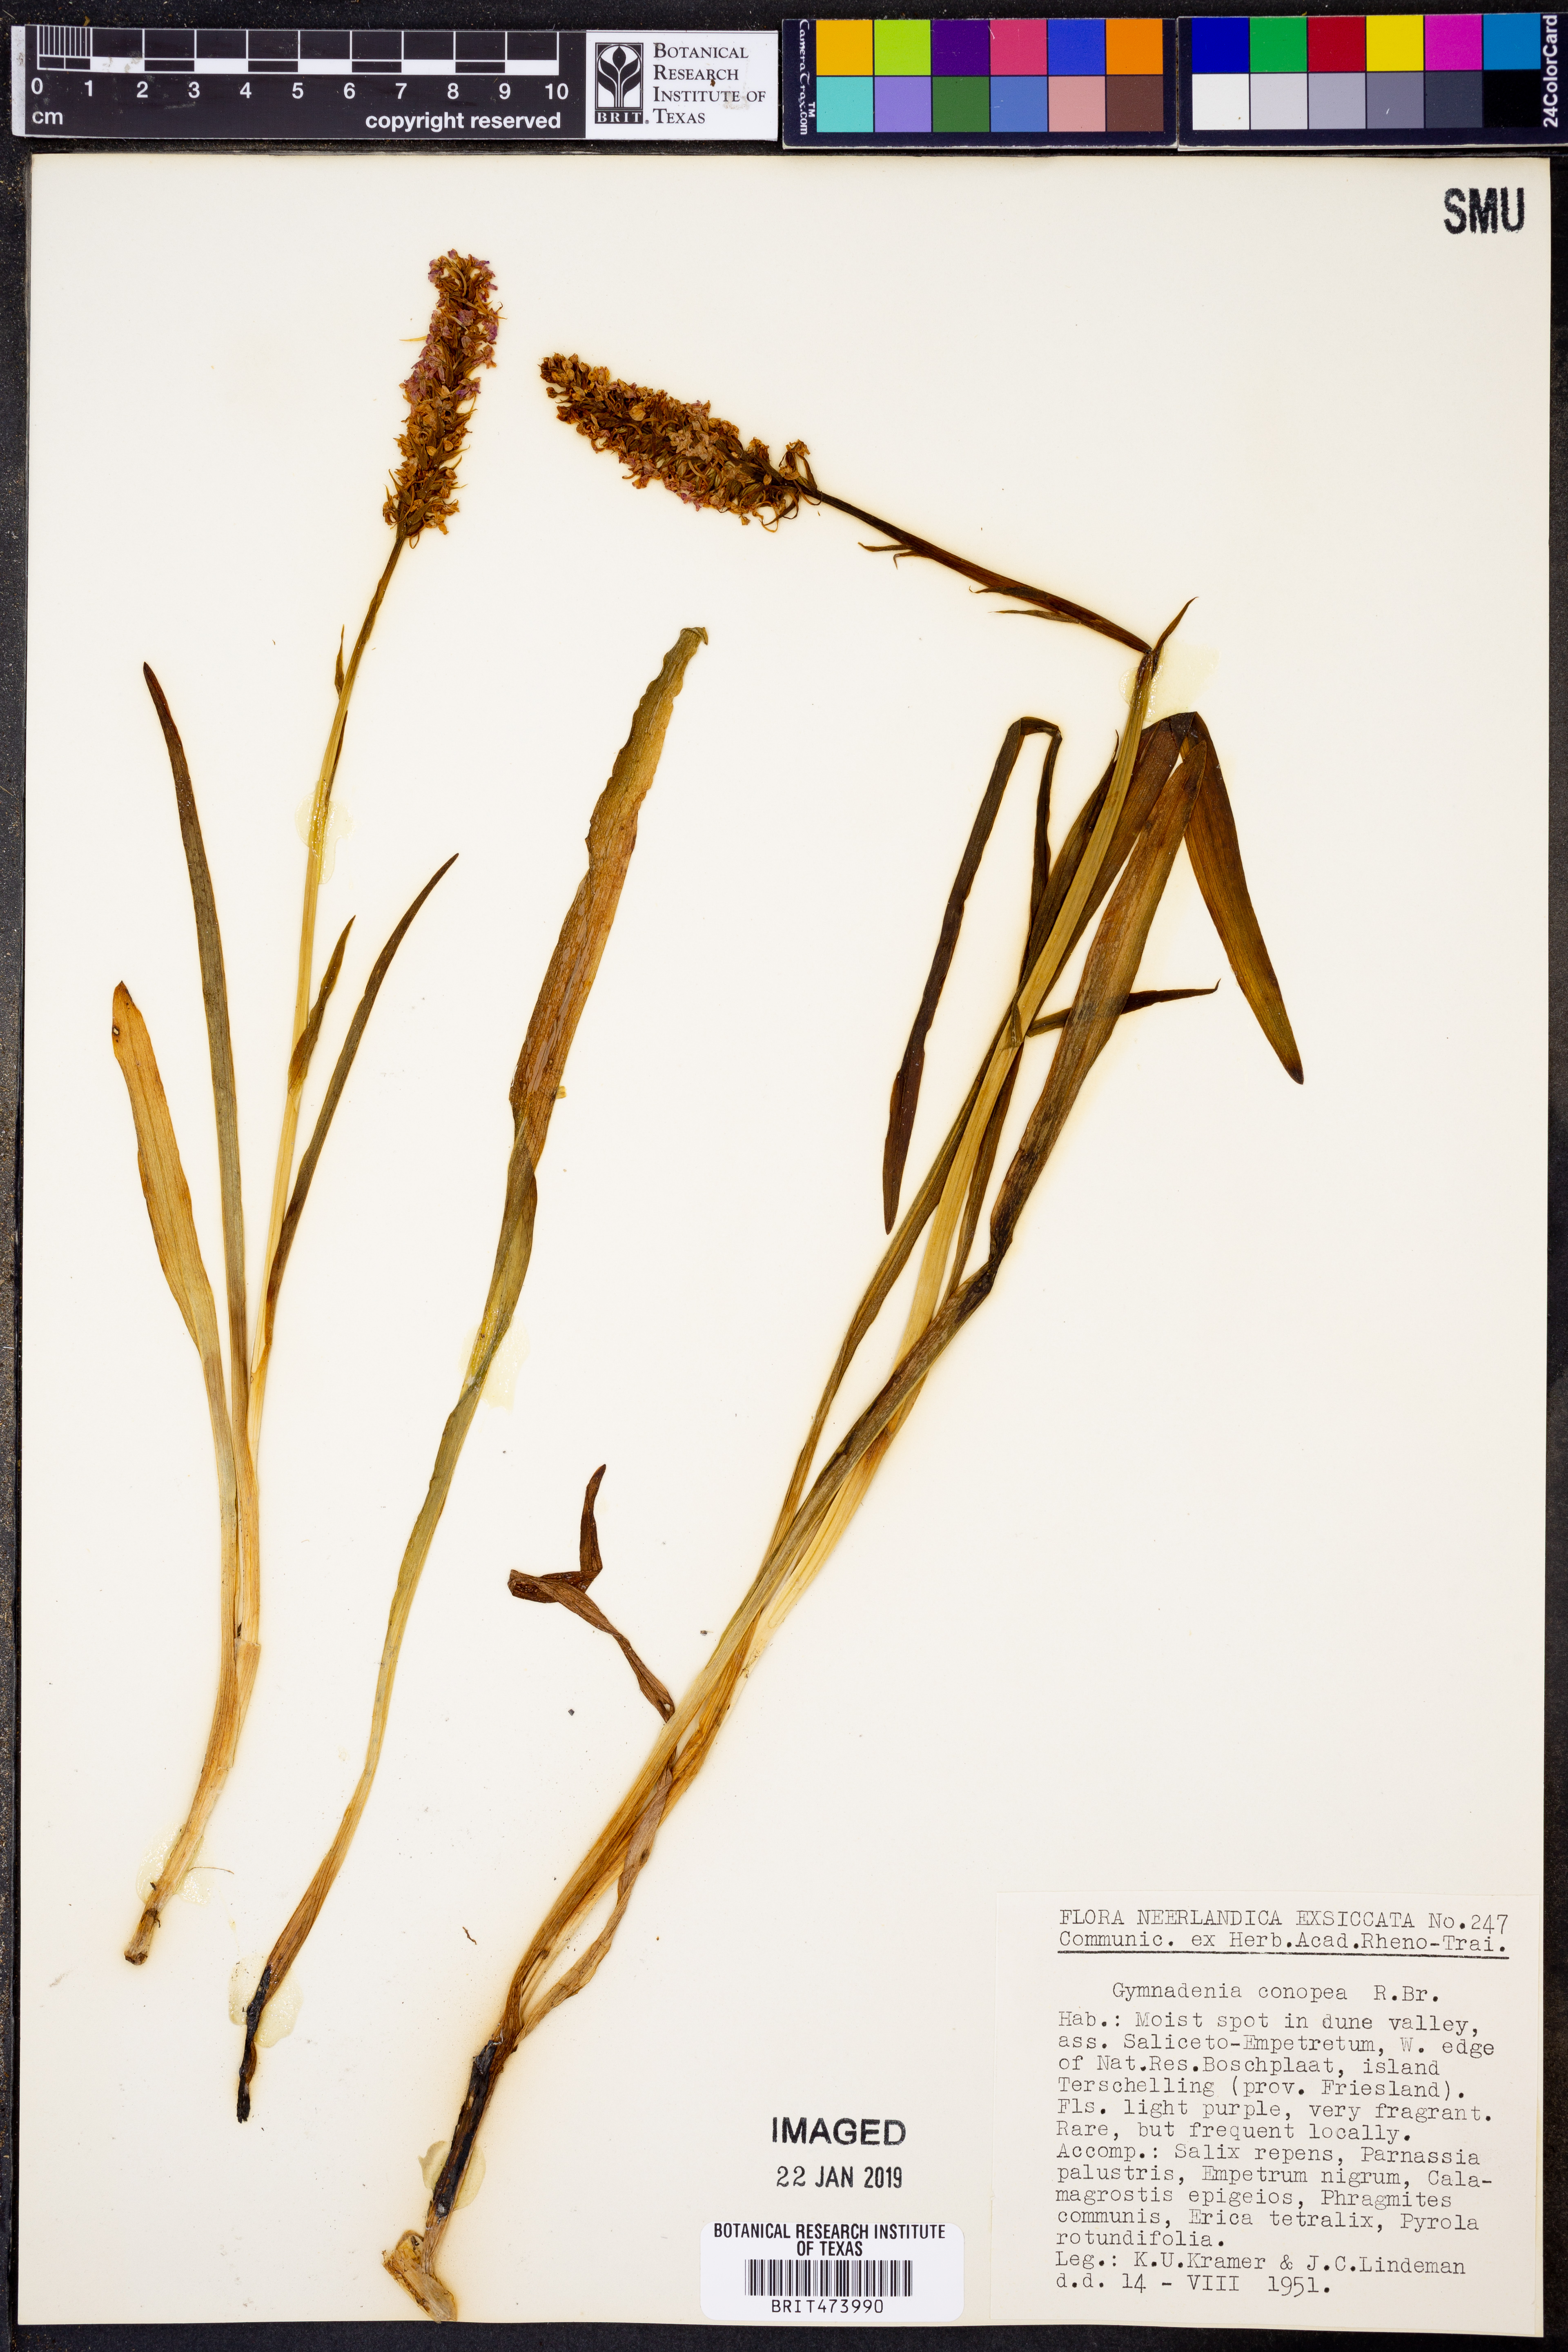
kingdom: Plantae
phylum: Tracheophyta
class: Liliopsida
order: Asparagales
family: Orchidaceae
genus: Gymnadenia
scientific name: Gymnadenia conopsea
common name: Fragrant orchid
